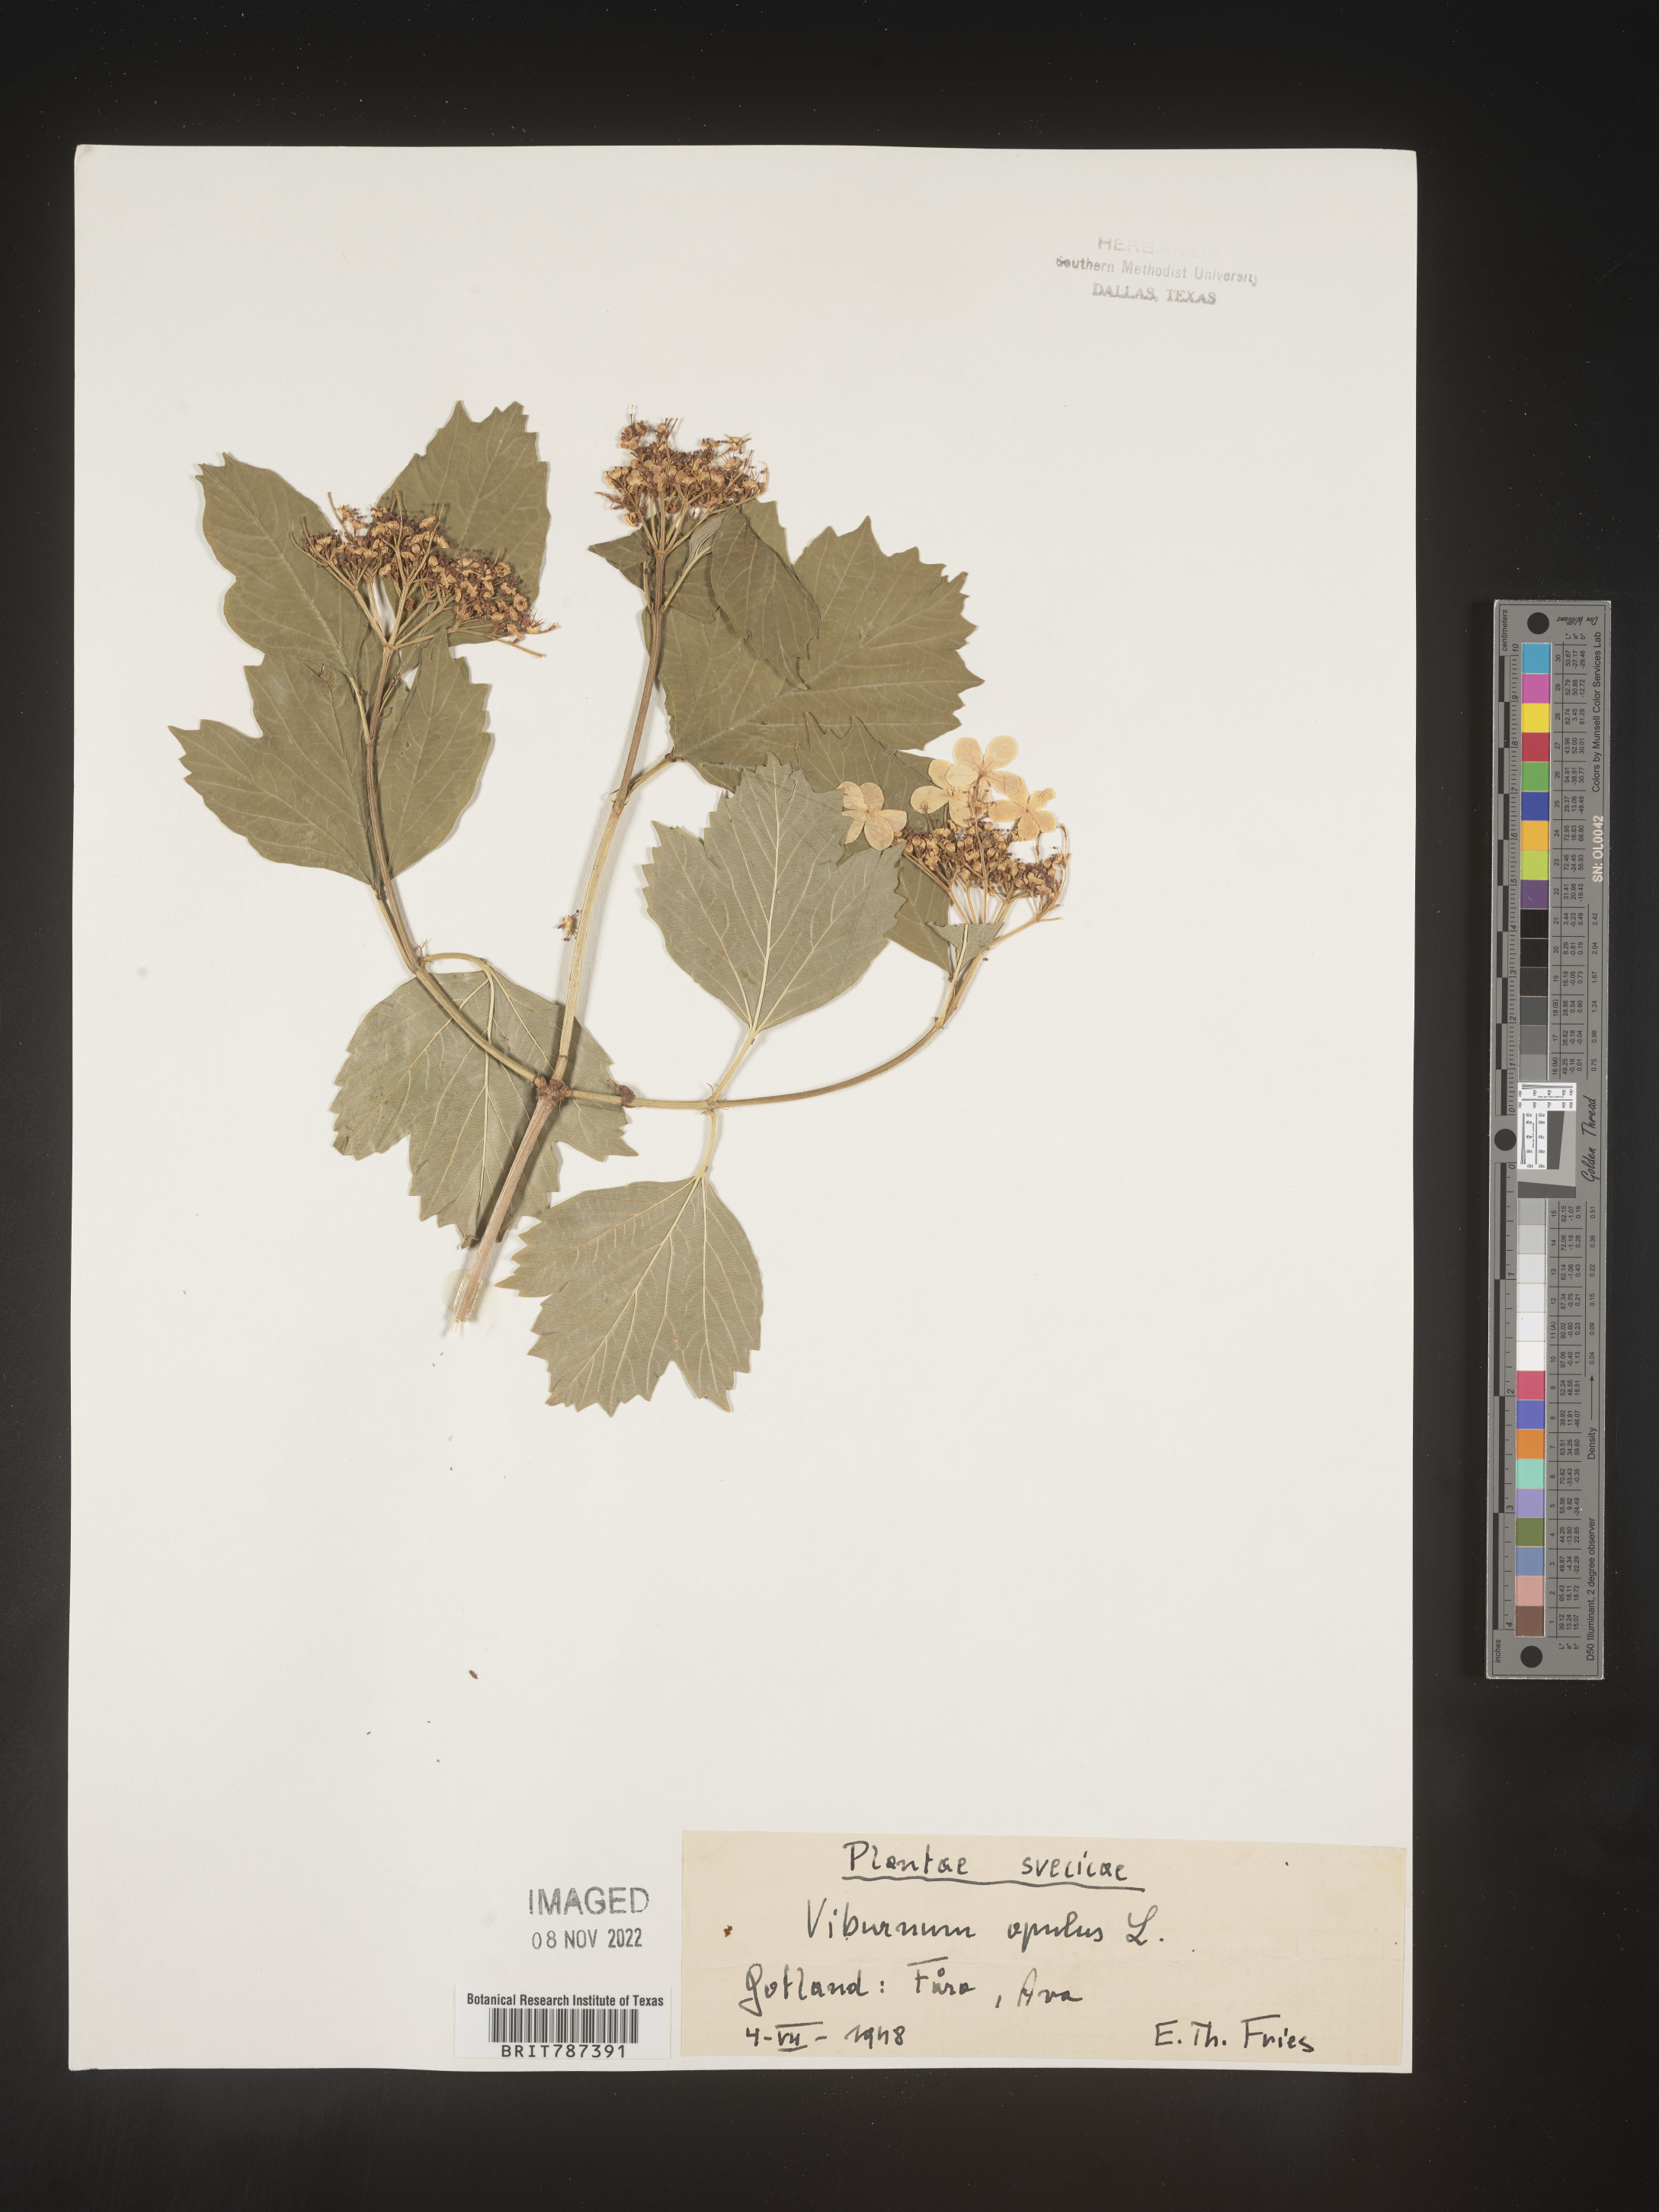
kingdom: Plantae
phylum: Tracheophyta
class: Magnoliopsida
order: Dipsacales
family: Viburnaceae
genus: Viburnum
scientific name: Viburnum opulus
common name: Guelder-rose
